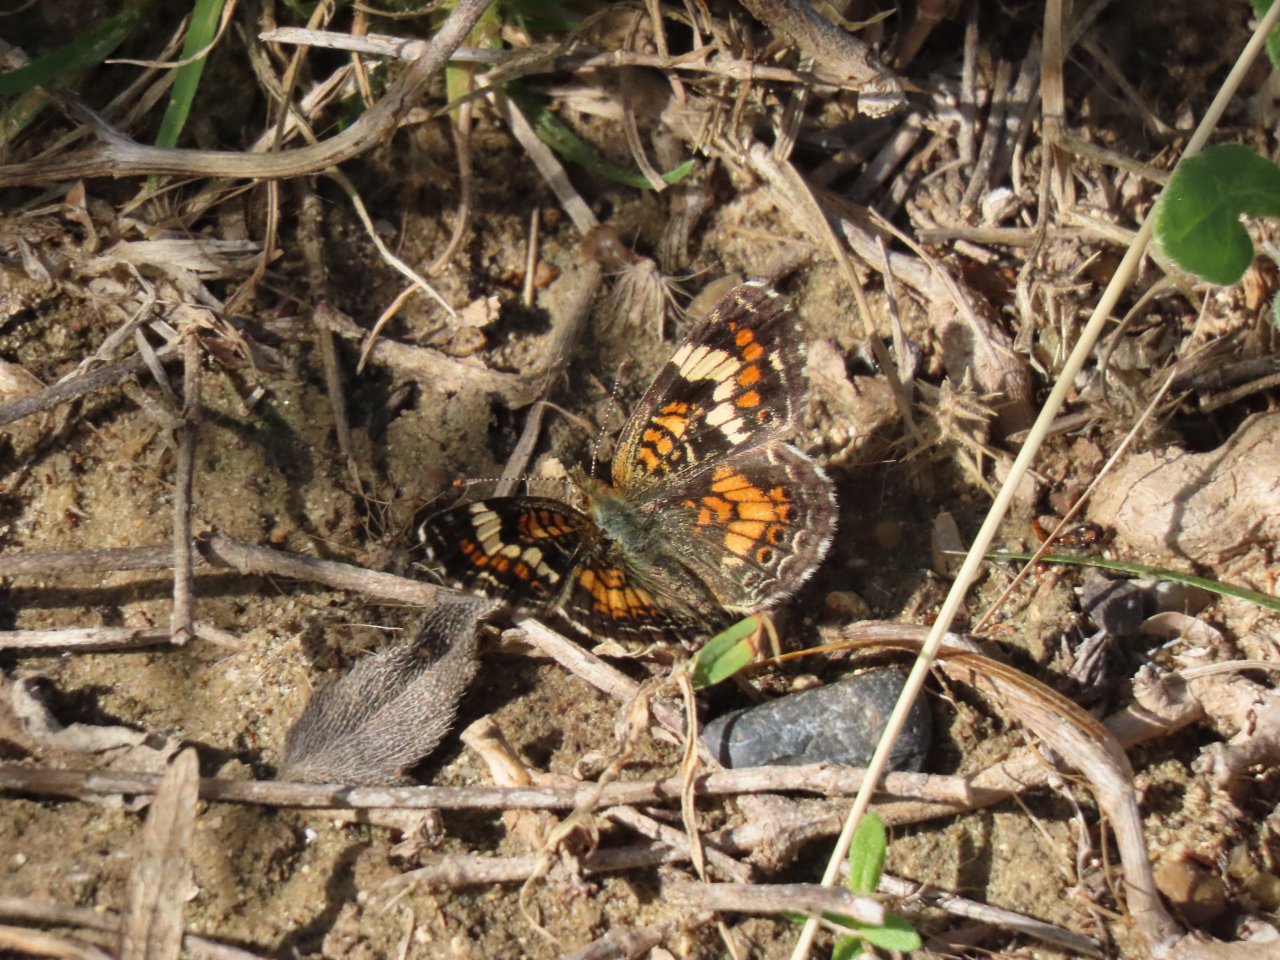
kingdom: Animalia
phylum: Arthropoda
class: Insecta
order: Lepidoptera
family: Nymphalidae
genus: Phyciodes
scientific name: Phyciodes phaon
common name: Phaon Crescent
